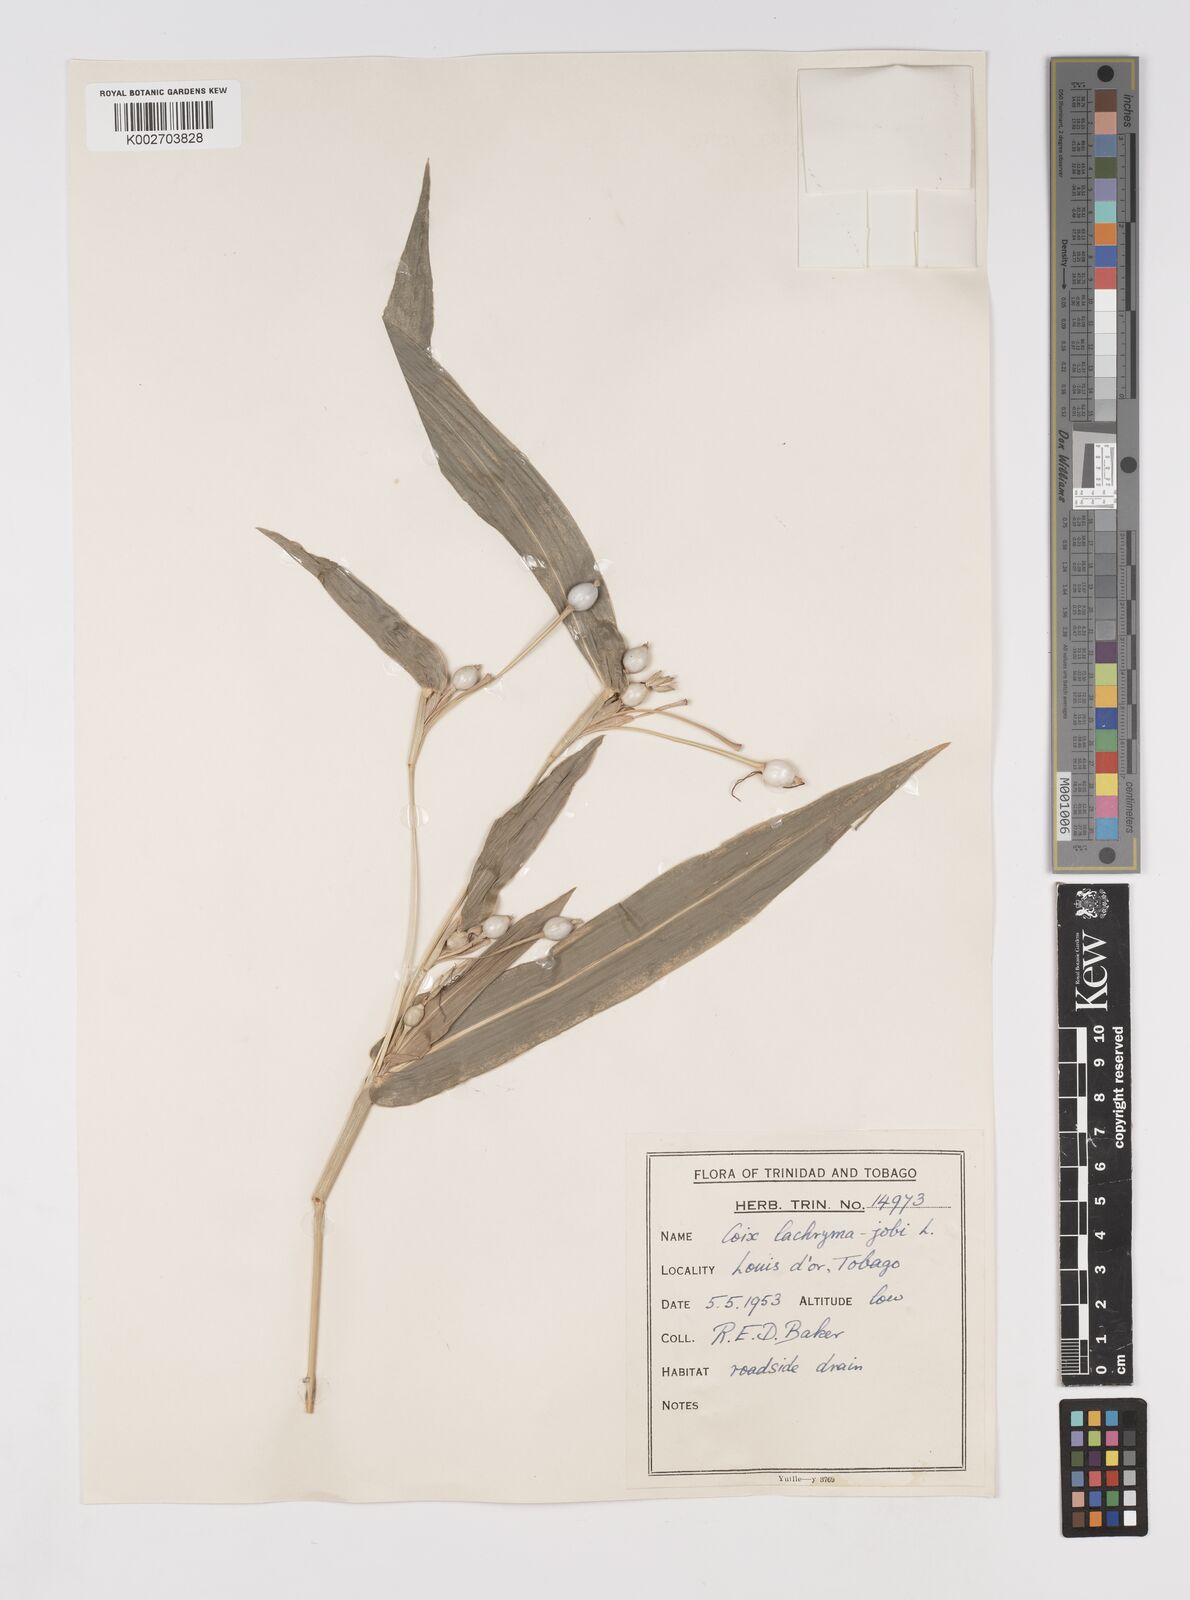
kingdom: Plantae
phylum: Tracheophyta
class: Liliopsida
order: Poales
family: Poaceae
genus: Coix
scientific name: Coix lacryma-jobi
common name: Job's tears
